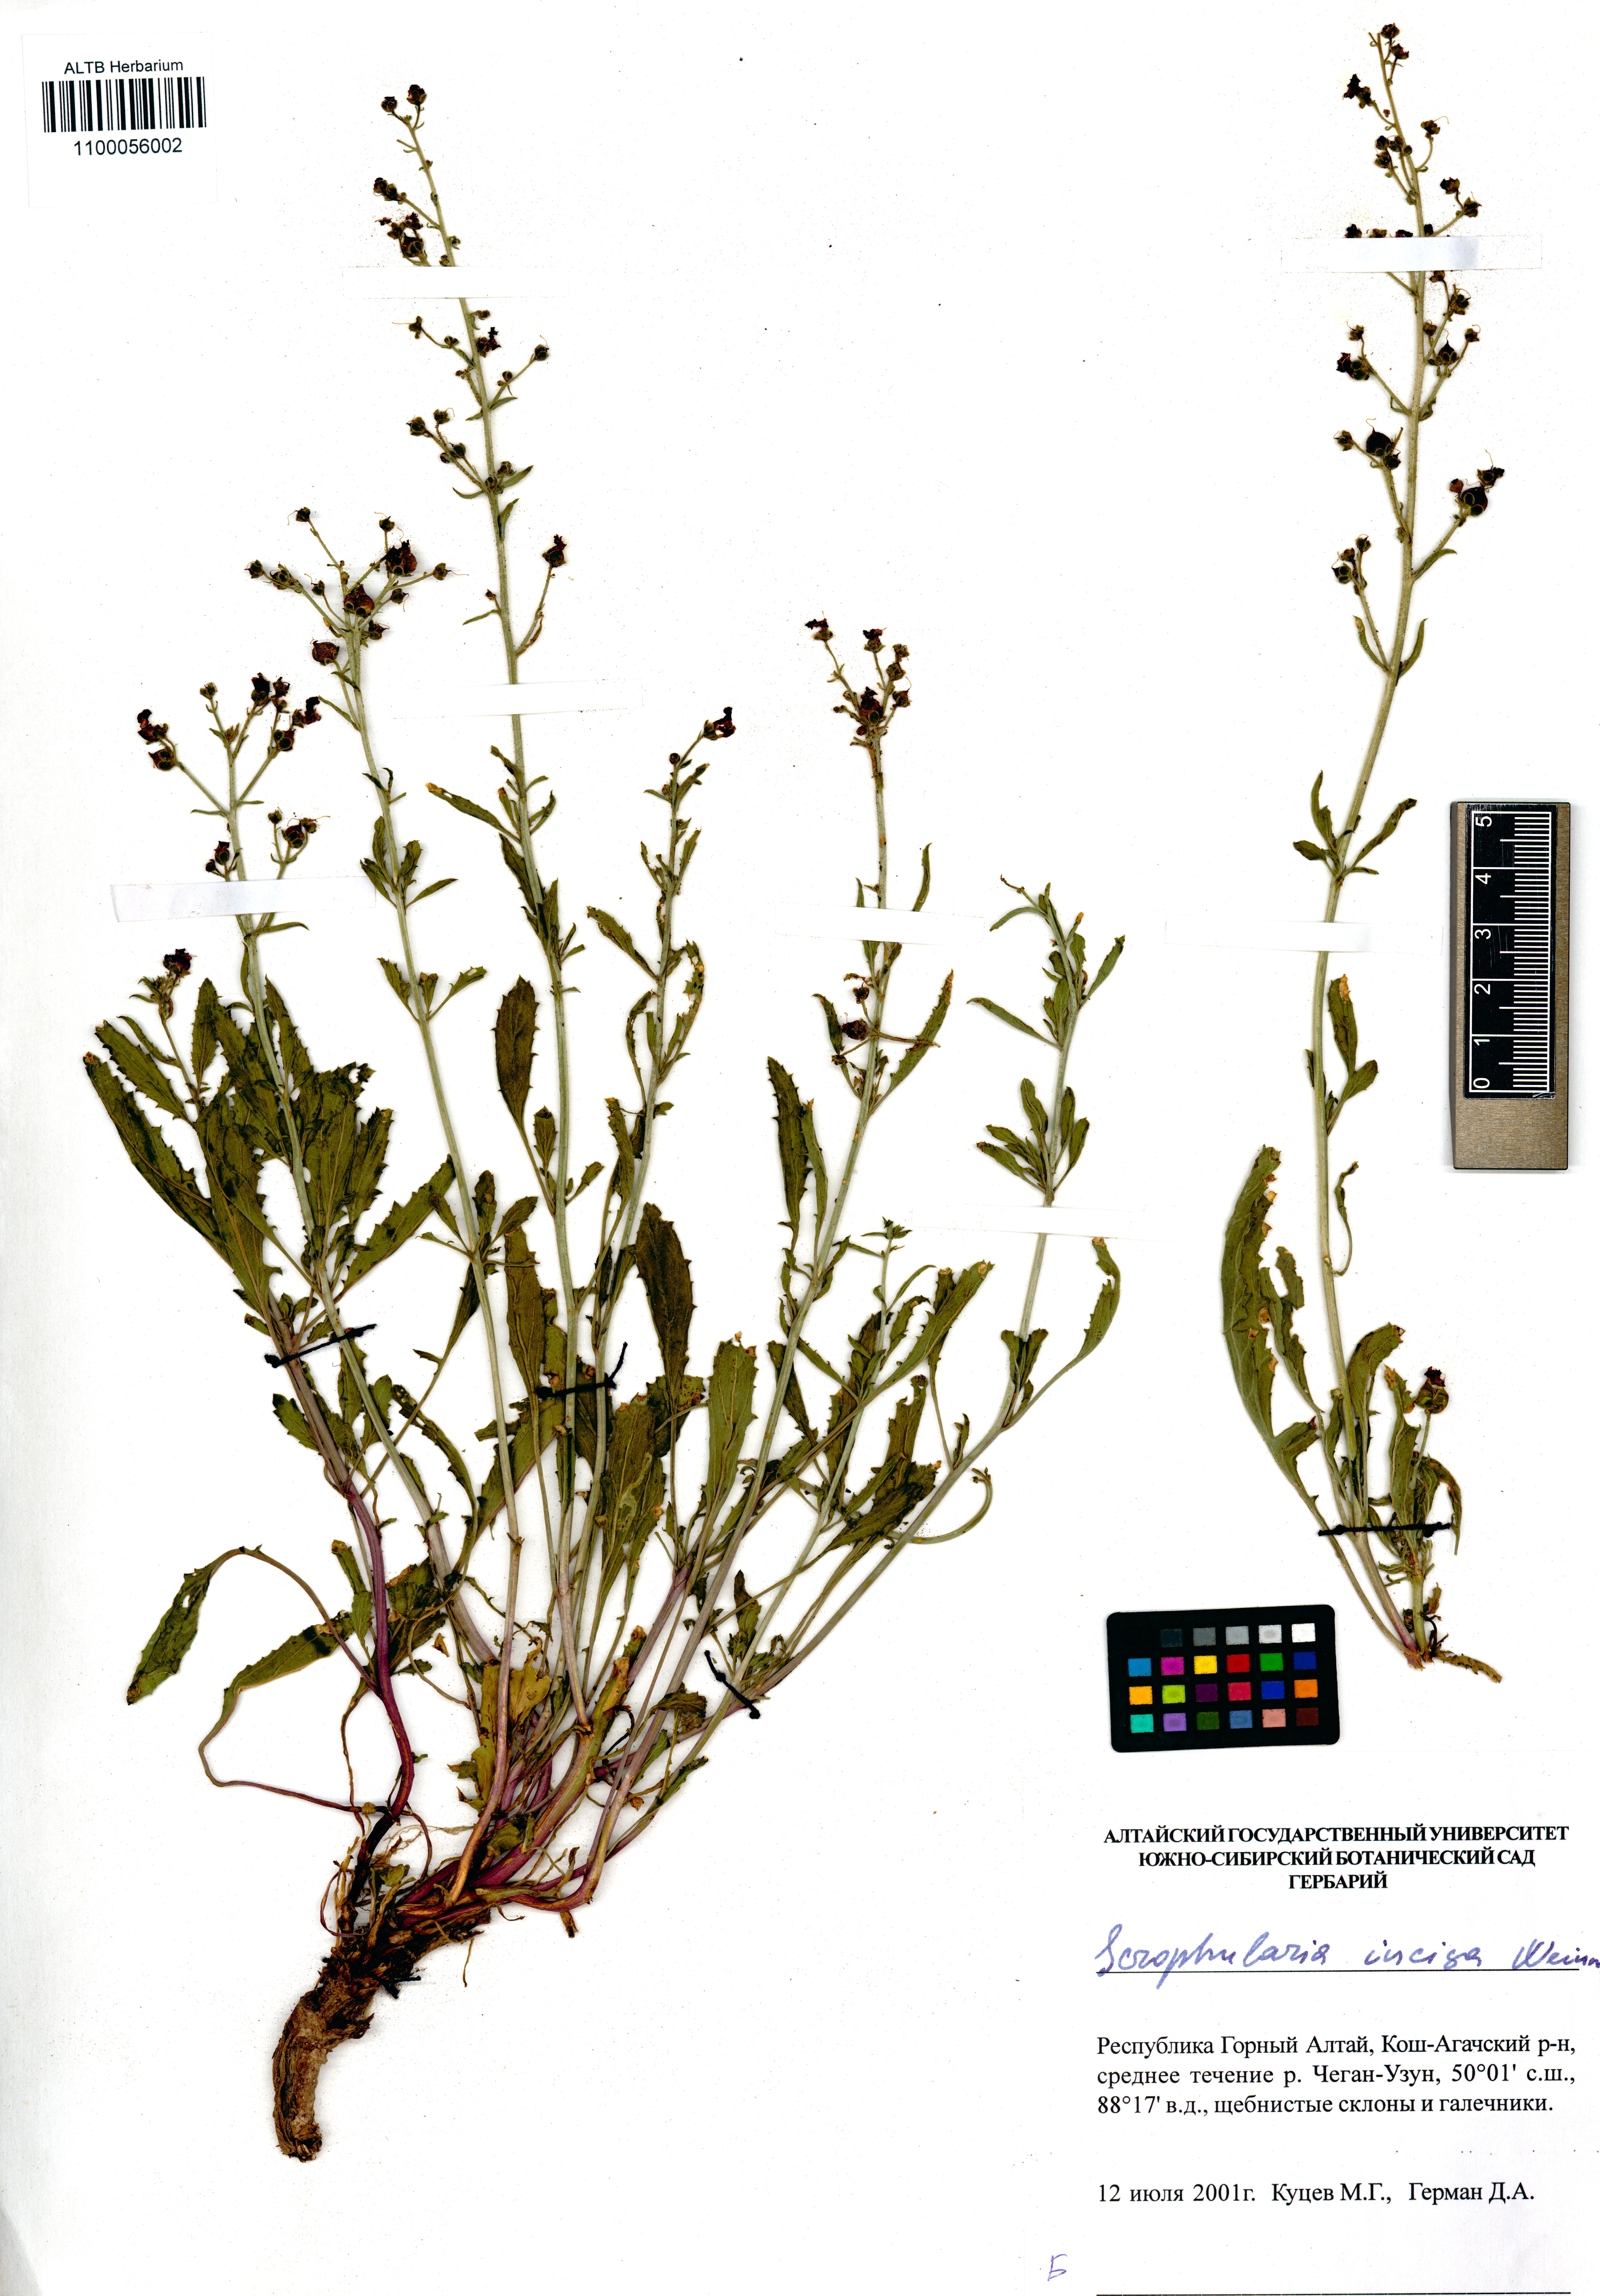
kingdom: Plantae
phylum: Tracheophyta
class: Magnoliopsida
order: Lamiales
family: Scrophulariaceae
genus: Scrophularia
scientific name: Scrophularia incisa
